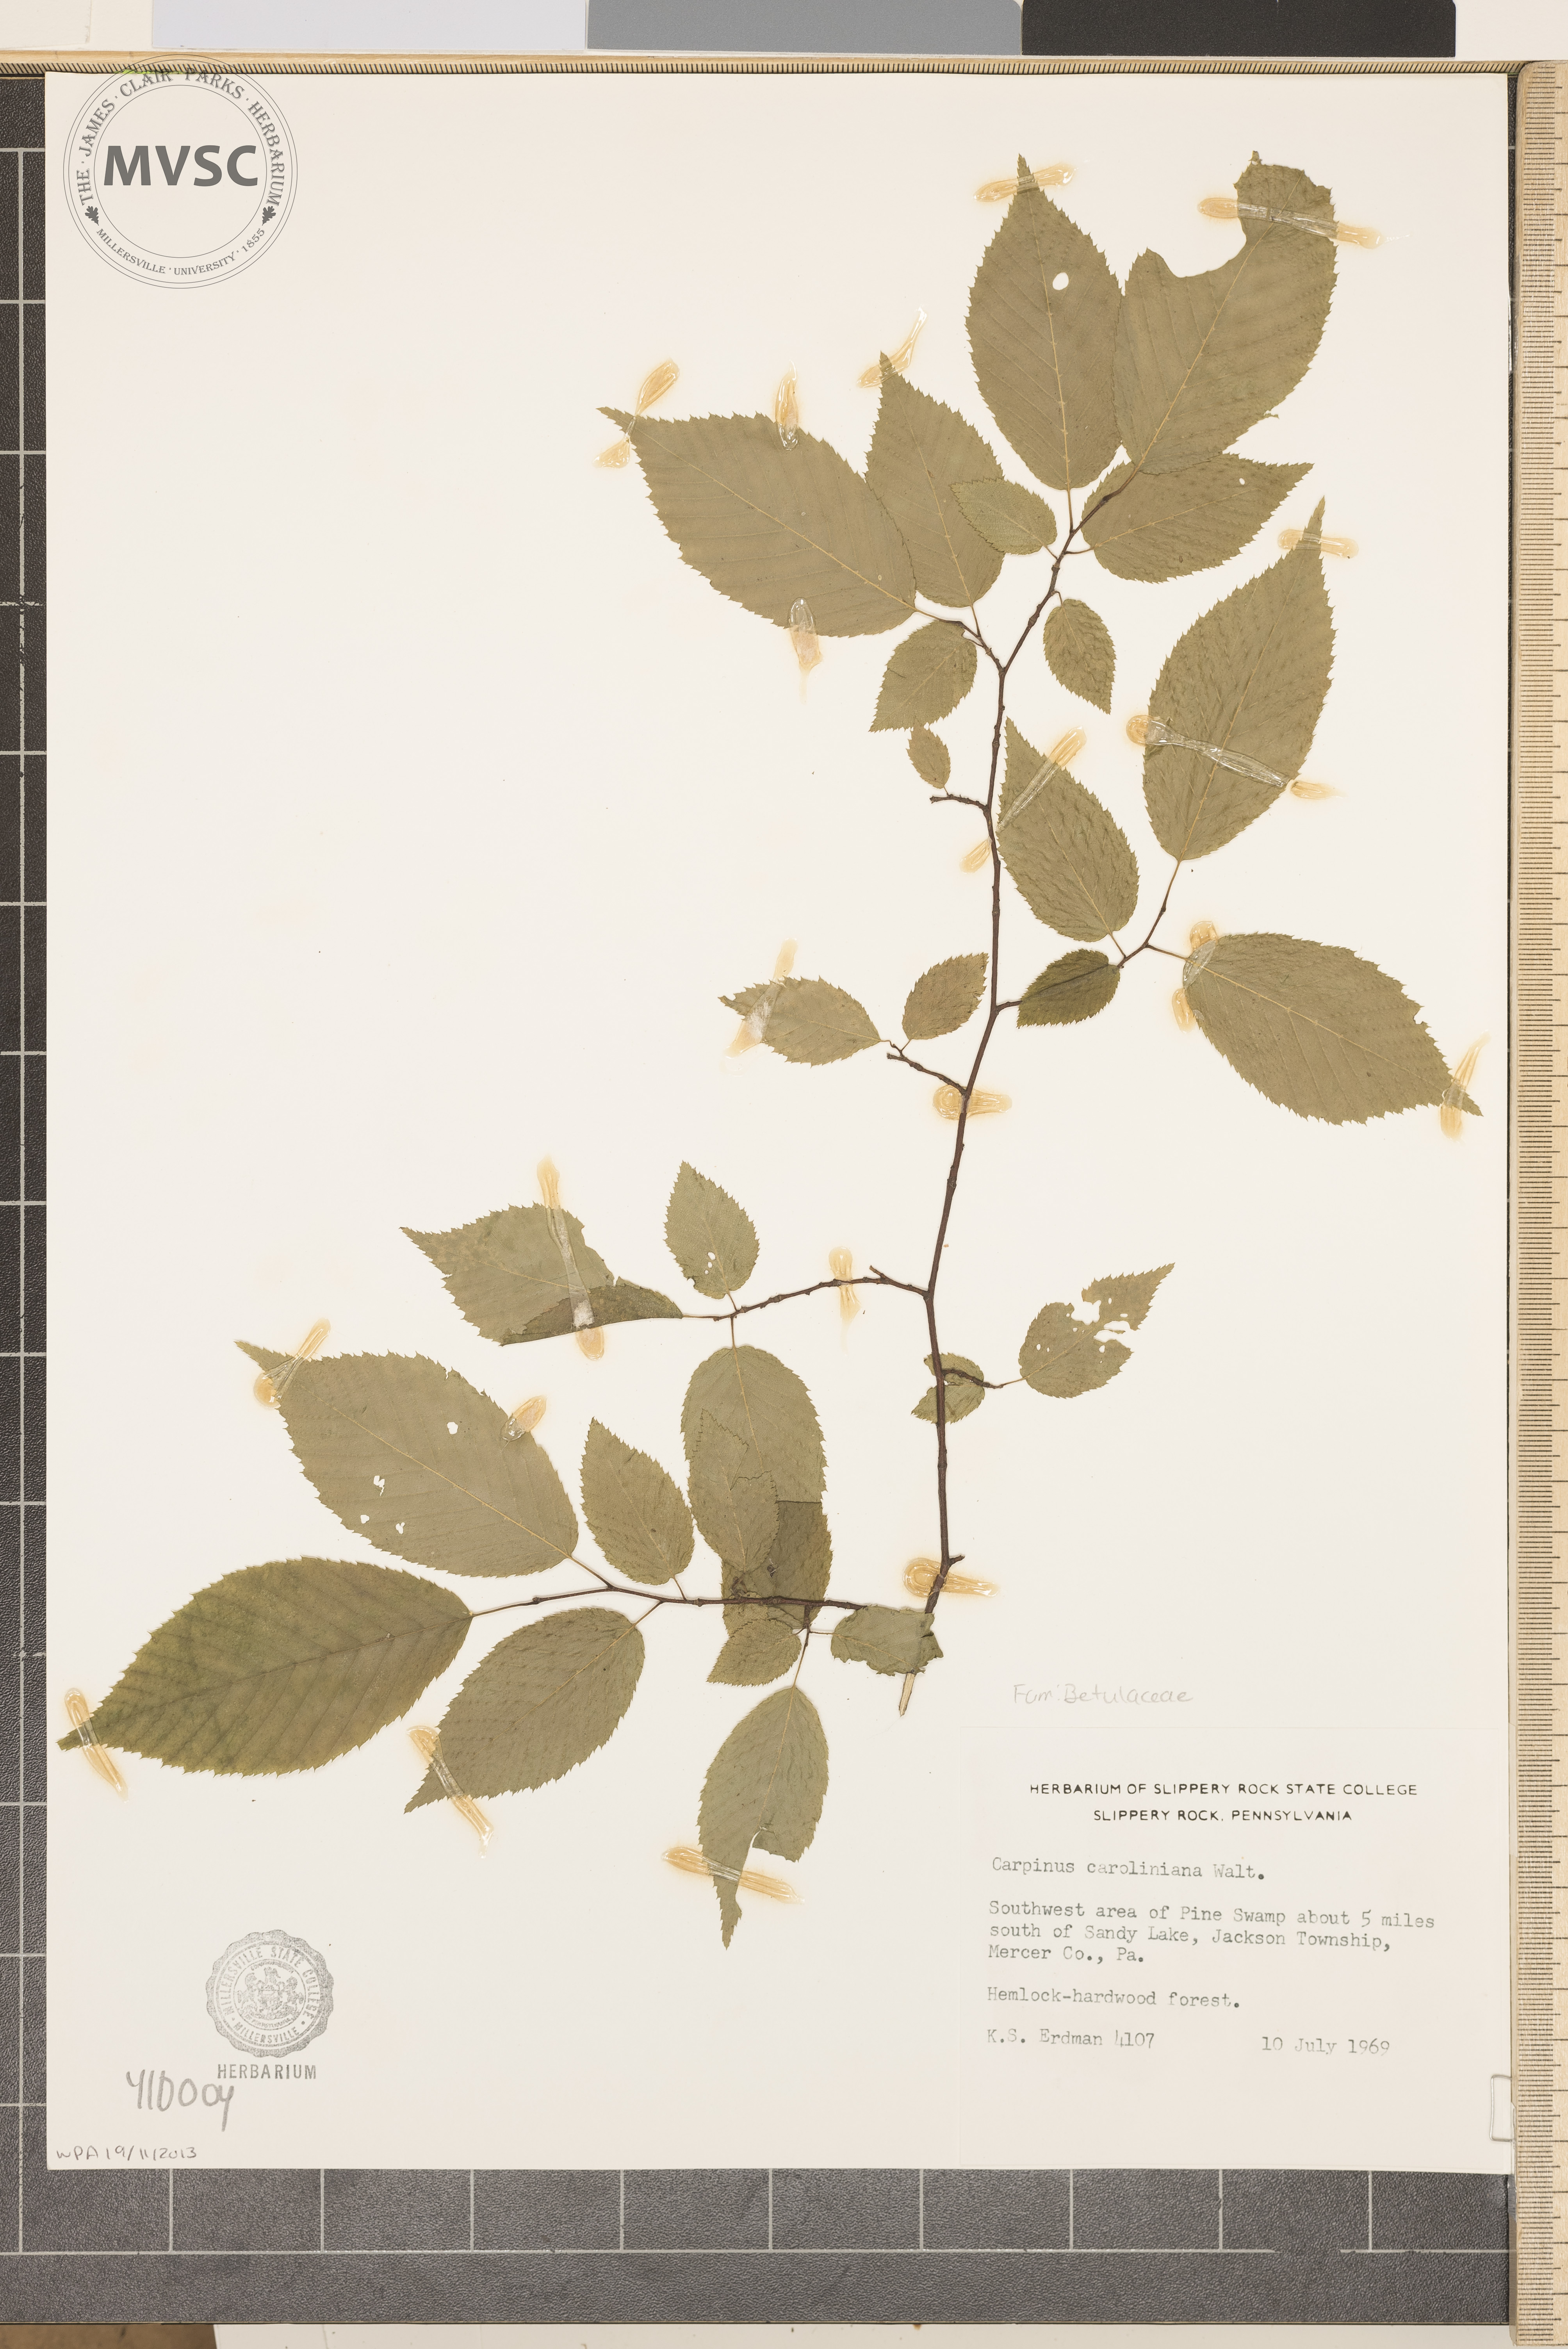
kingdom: Plantae
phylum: Tracheophyta
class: Magnoliopsida
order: Fagales
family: Betulaceae
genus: Carpinus
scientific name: Carpinus caroliniana
